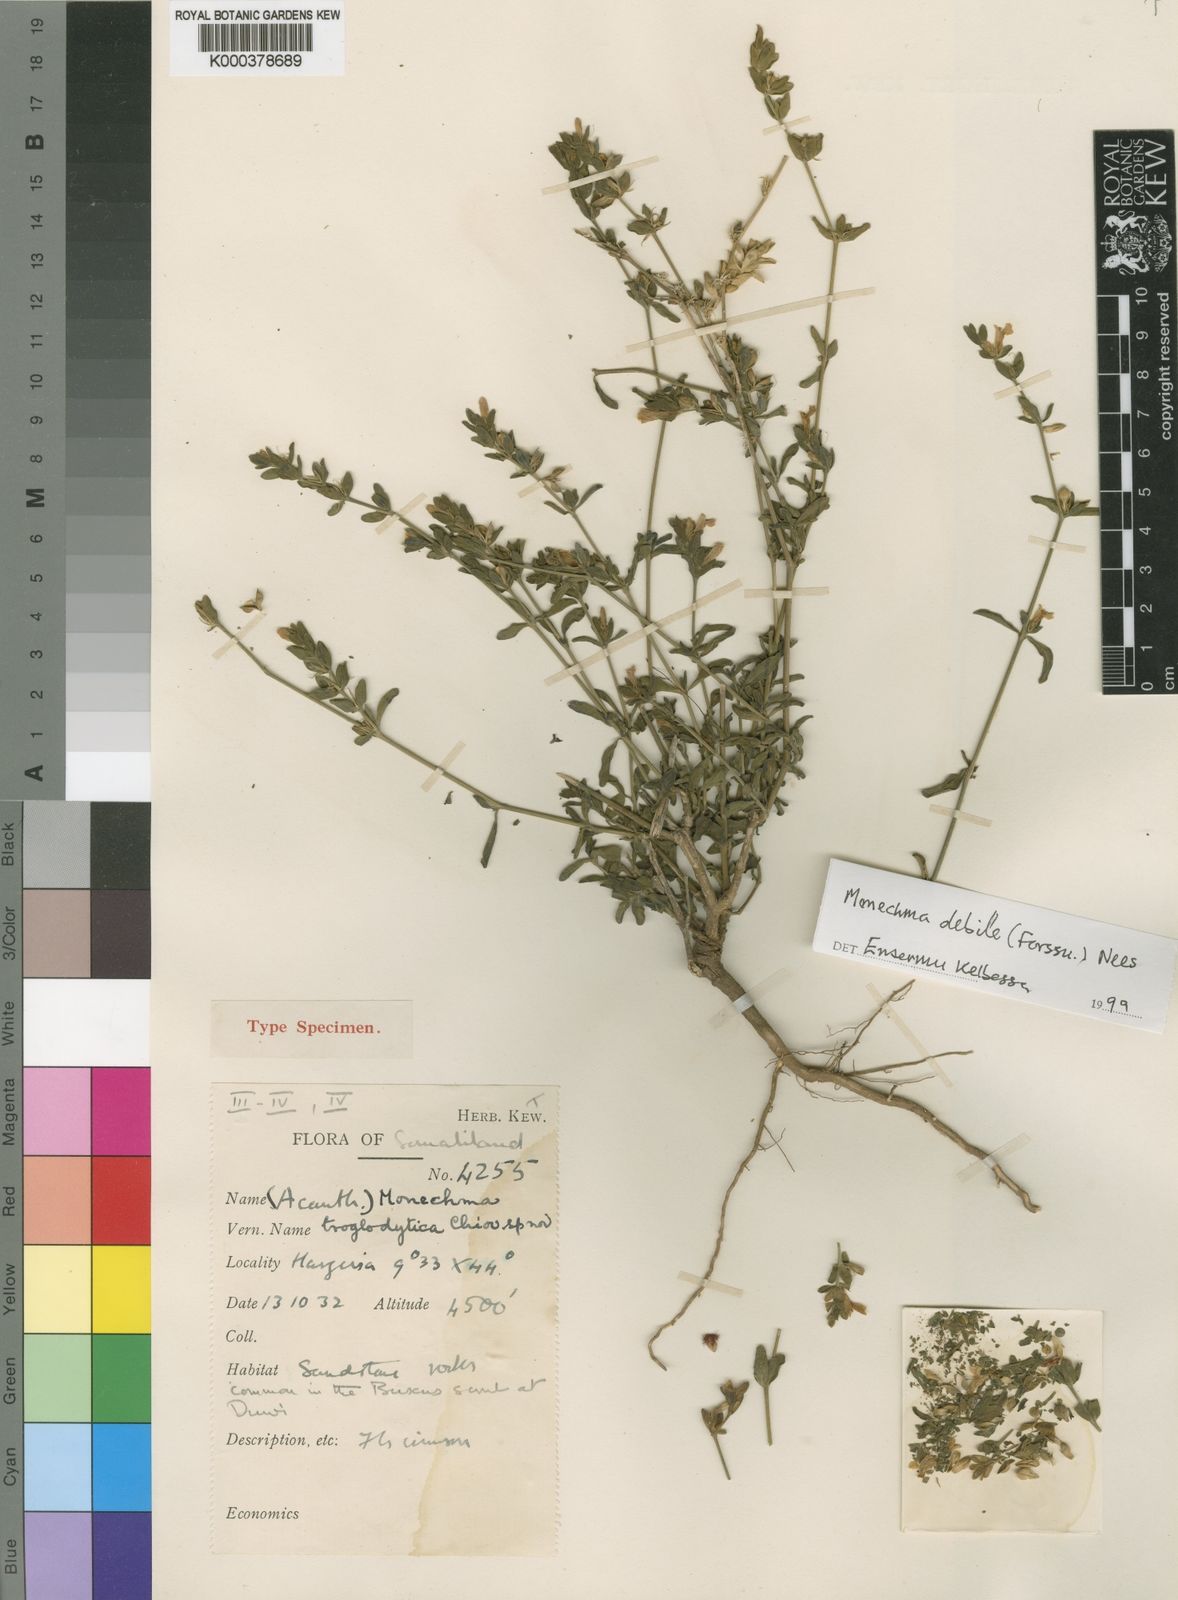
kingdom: Plantae
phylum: Tracheophyta
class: Magnoliopsida
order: Lamiales
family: Acanthaceae
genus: Monechma
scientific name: Monechma debile
